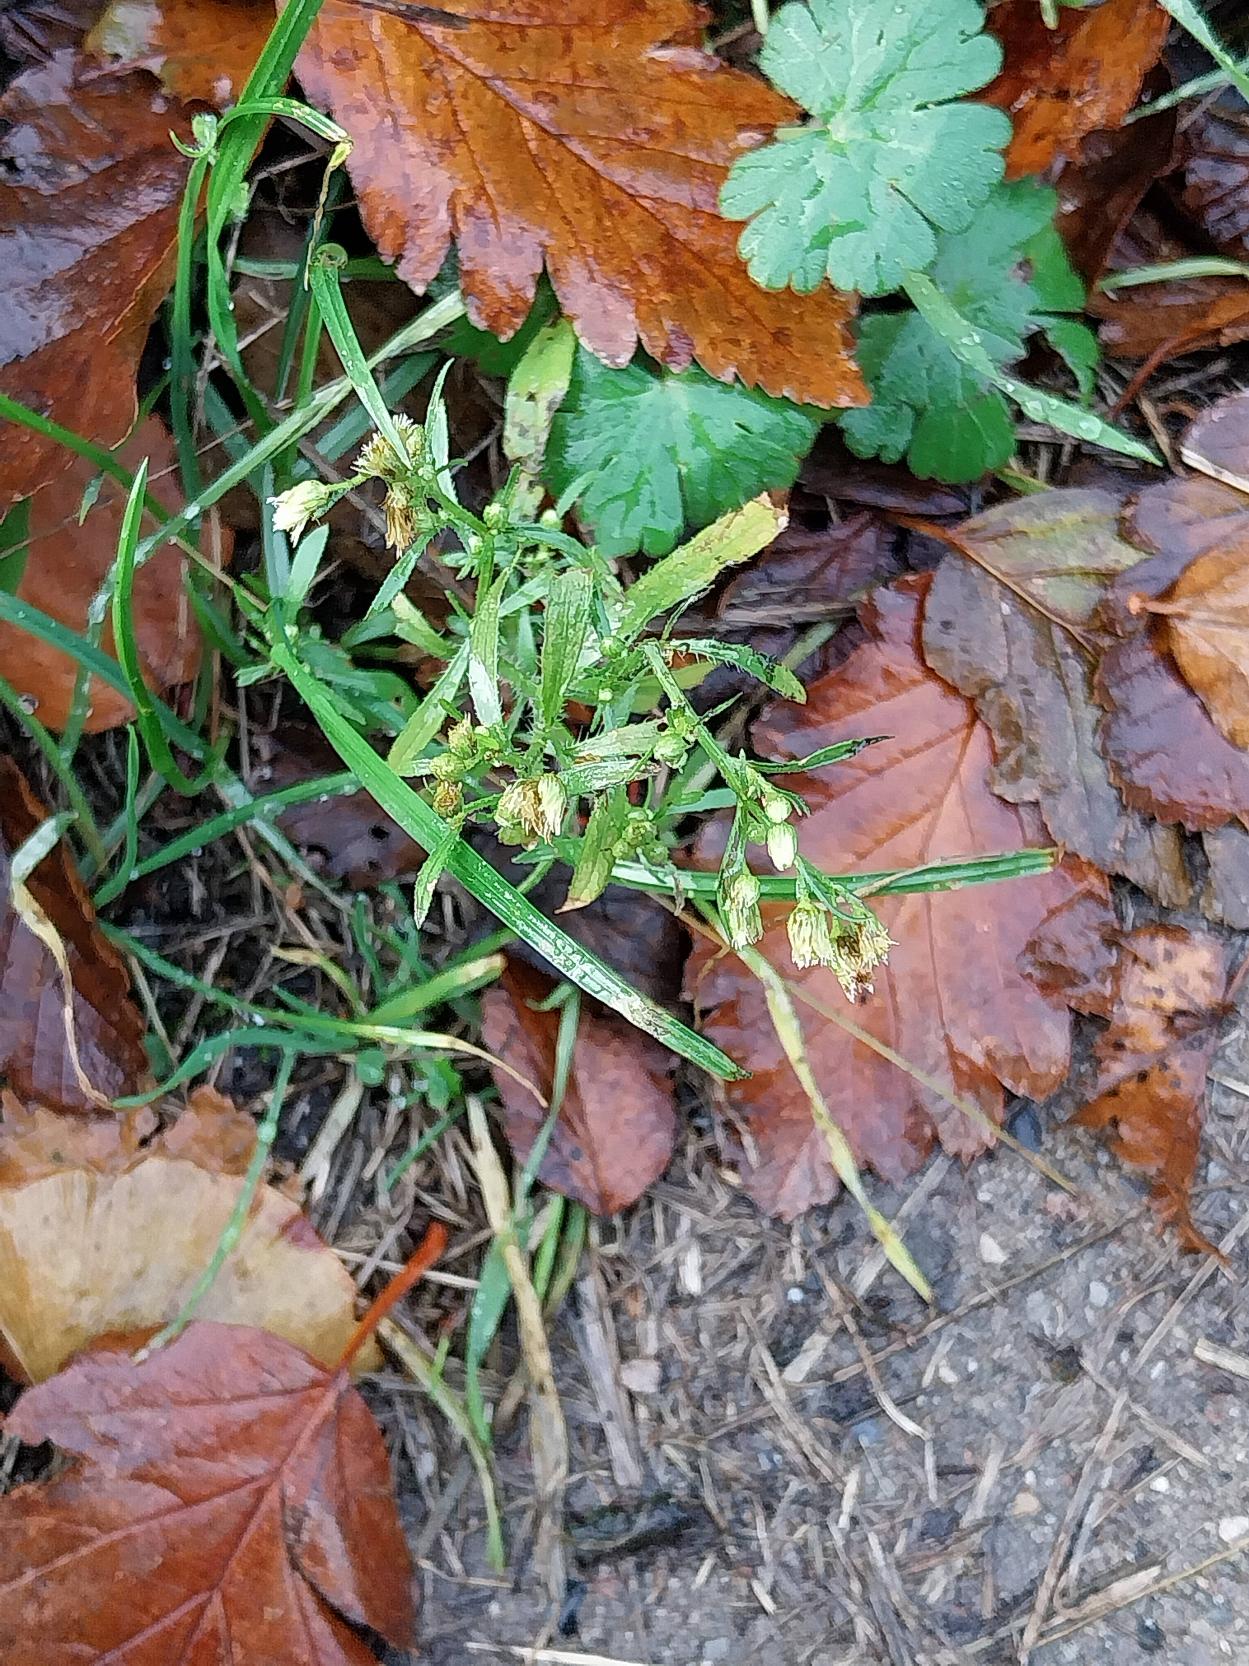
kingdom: Plantae
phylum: Tracheophyta
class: Magnoliopsida
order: Asterales
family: Asteraceae
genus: Erigeron
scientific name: Erigeron canadensis
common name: Kanadisk bakkestjerne
